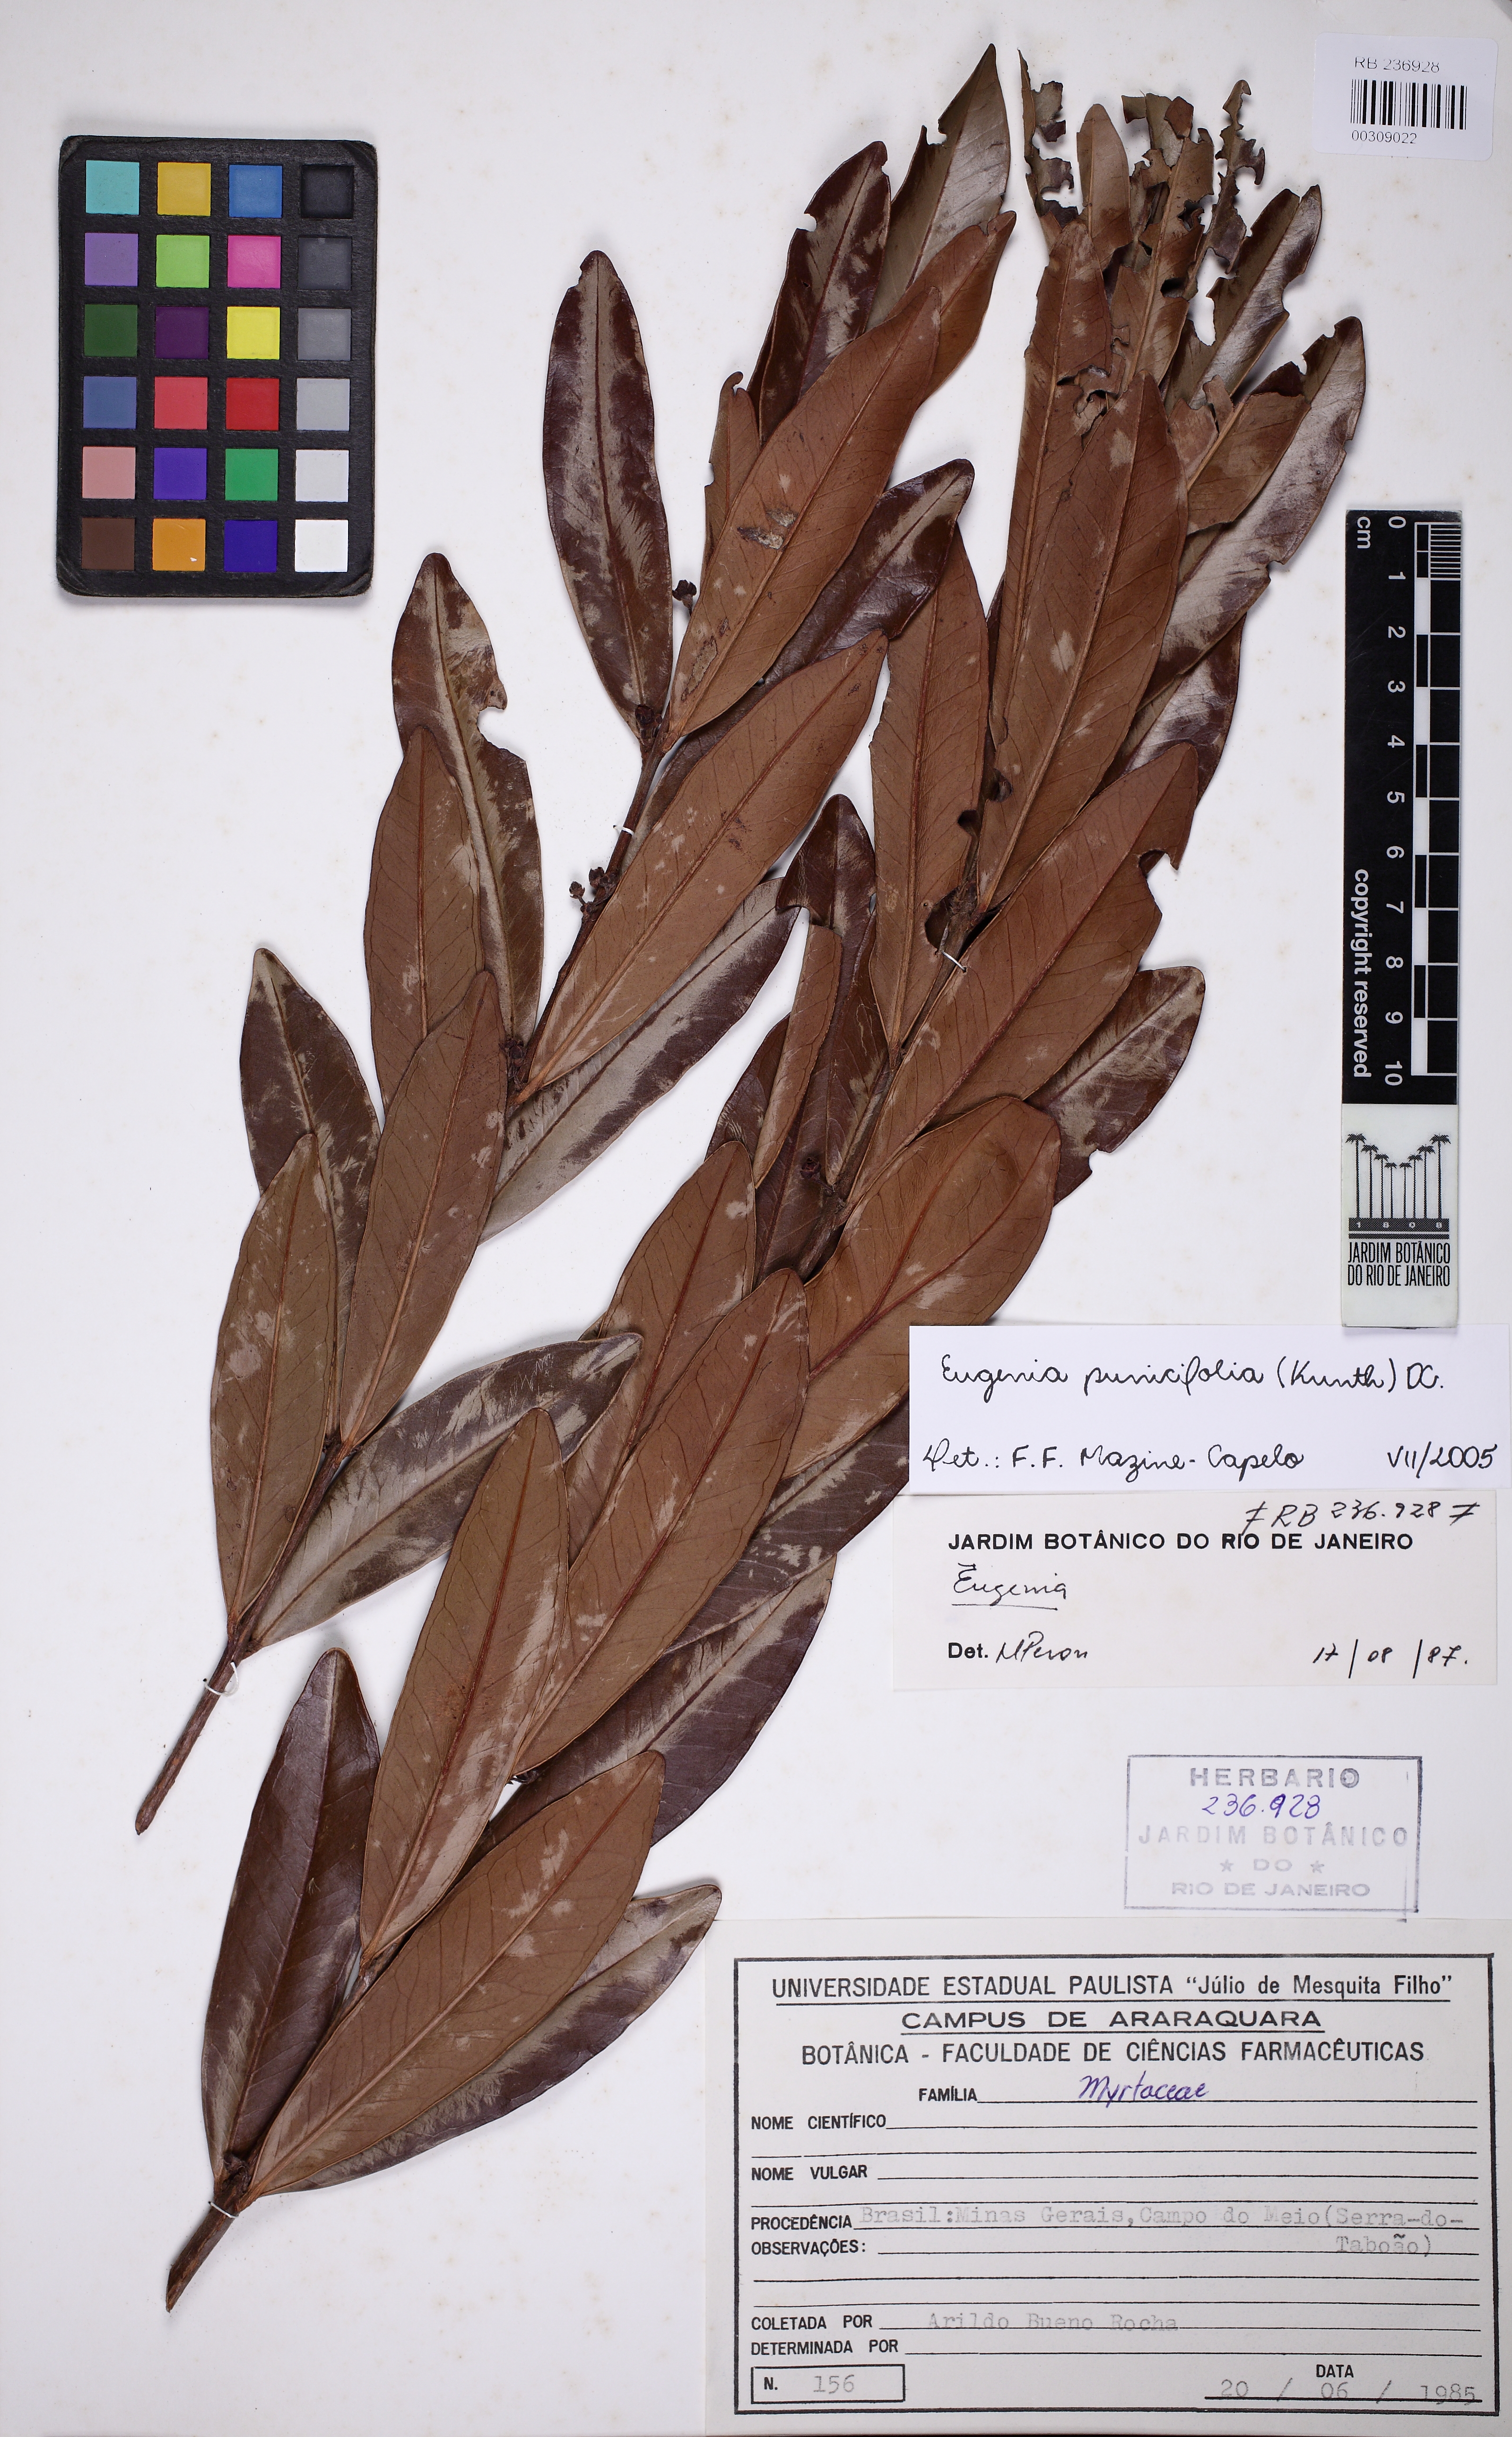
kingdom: Plantae
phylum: Tracheophyta
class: Magnoliopsida
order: Myrtales
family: Myrtaceae
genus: Eugenia
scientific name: Eugenia punicifolia
